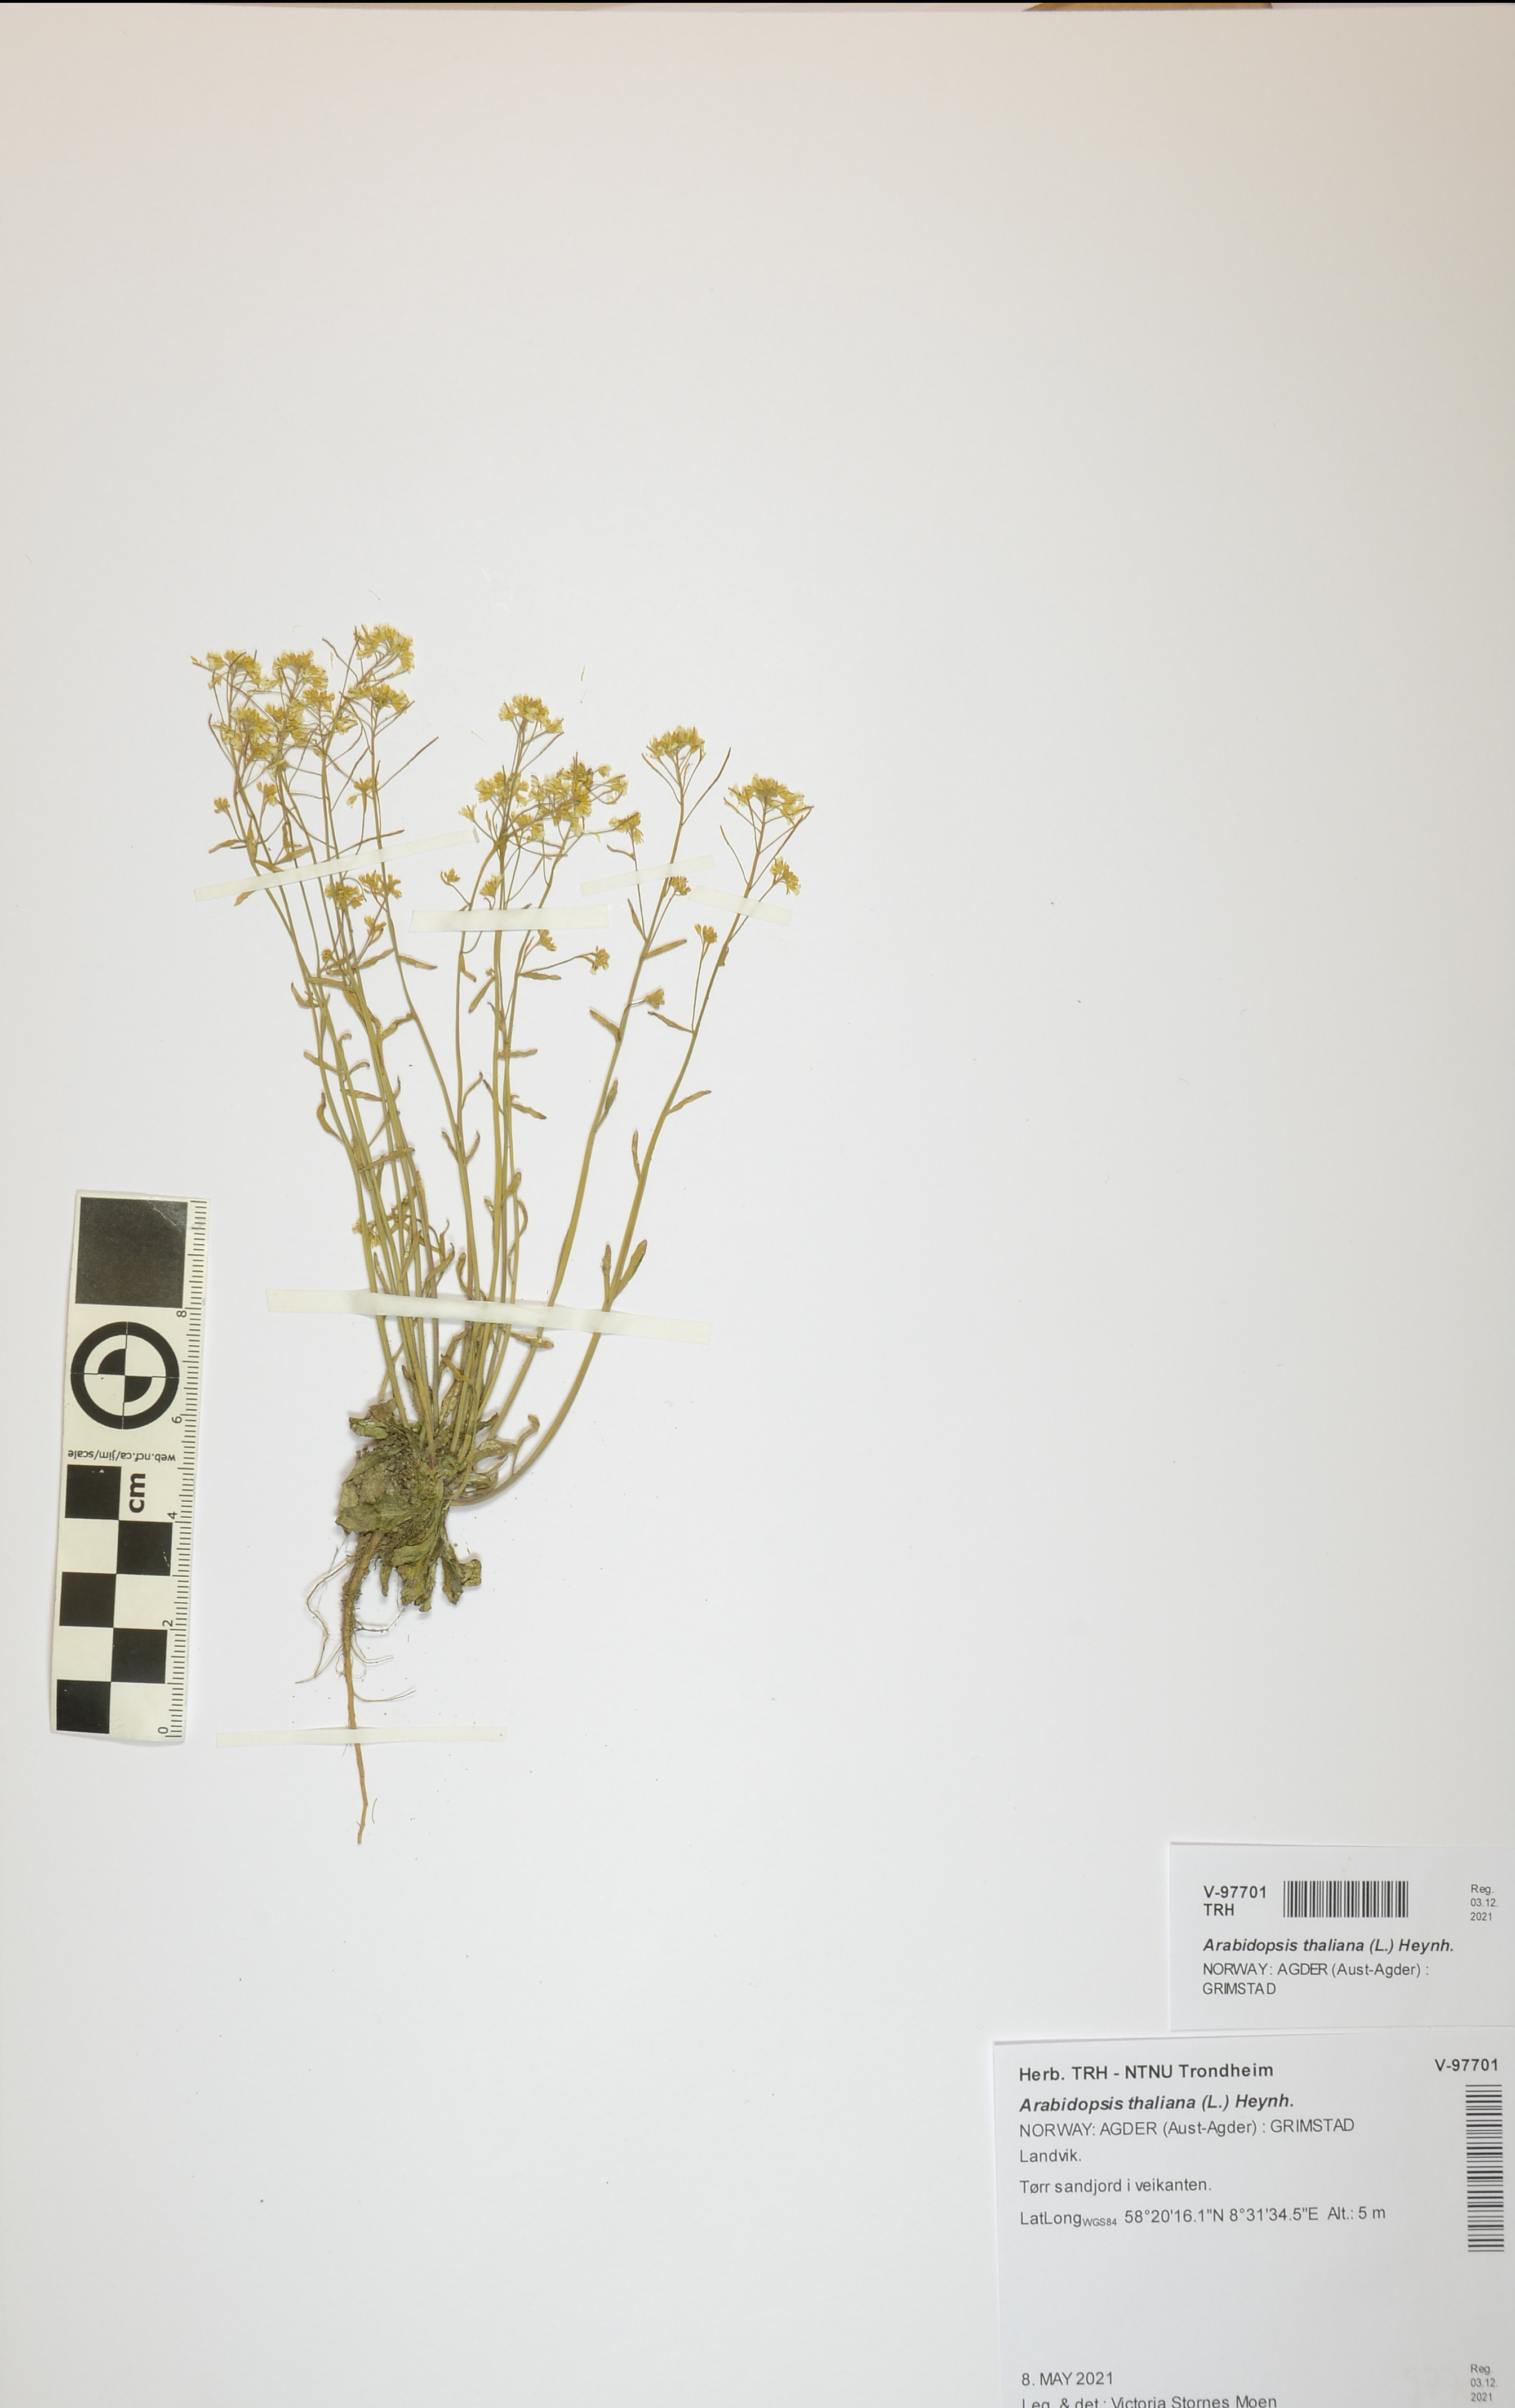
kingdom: Plantae
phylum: Tracheophyta
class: Magnoliopsida
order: Brassicales
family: Brassicaceae
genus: Arabidopsis
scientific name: Arabidopsis thaliana
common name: Thale cress
